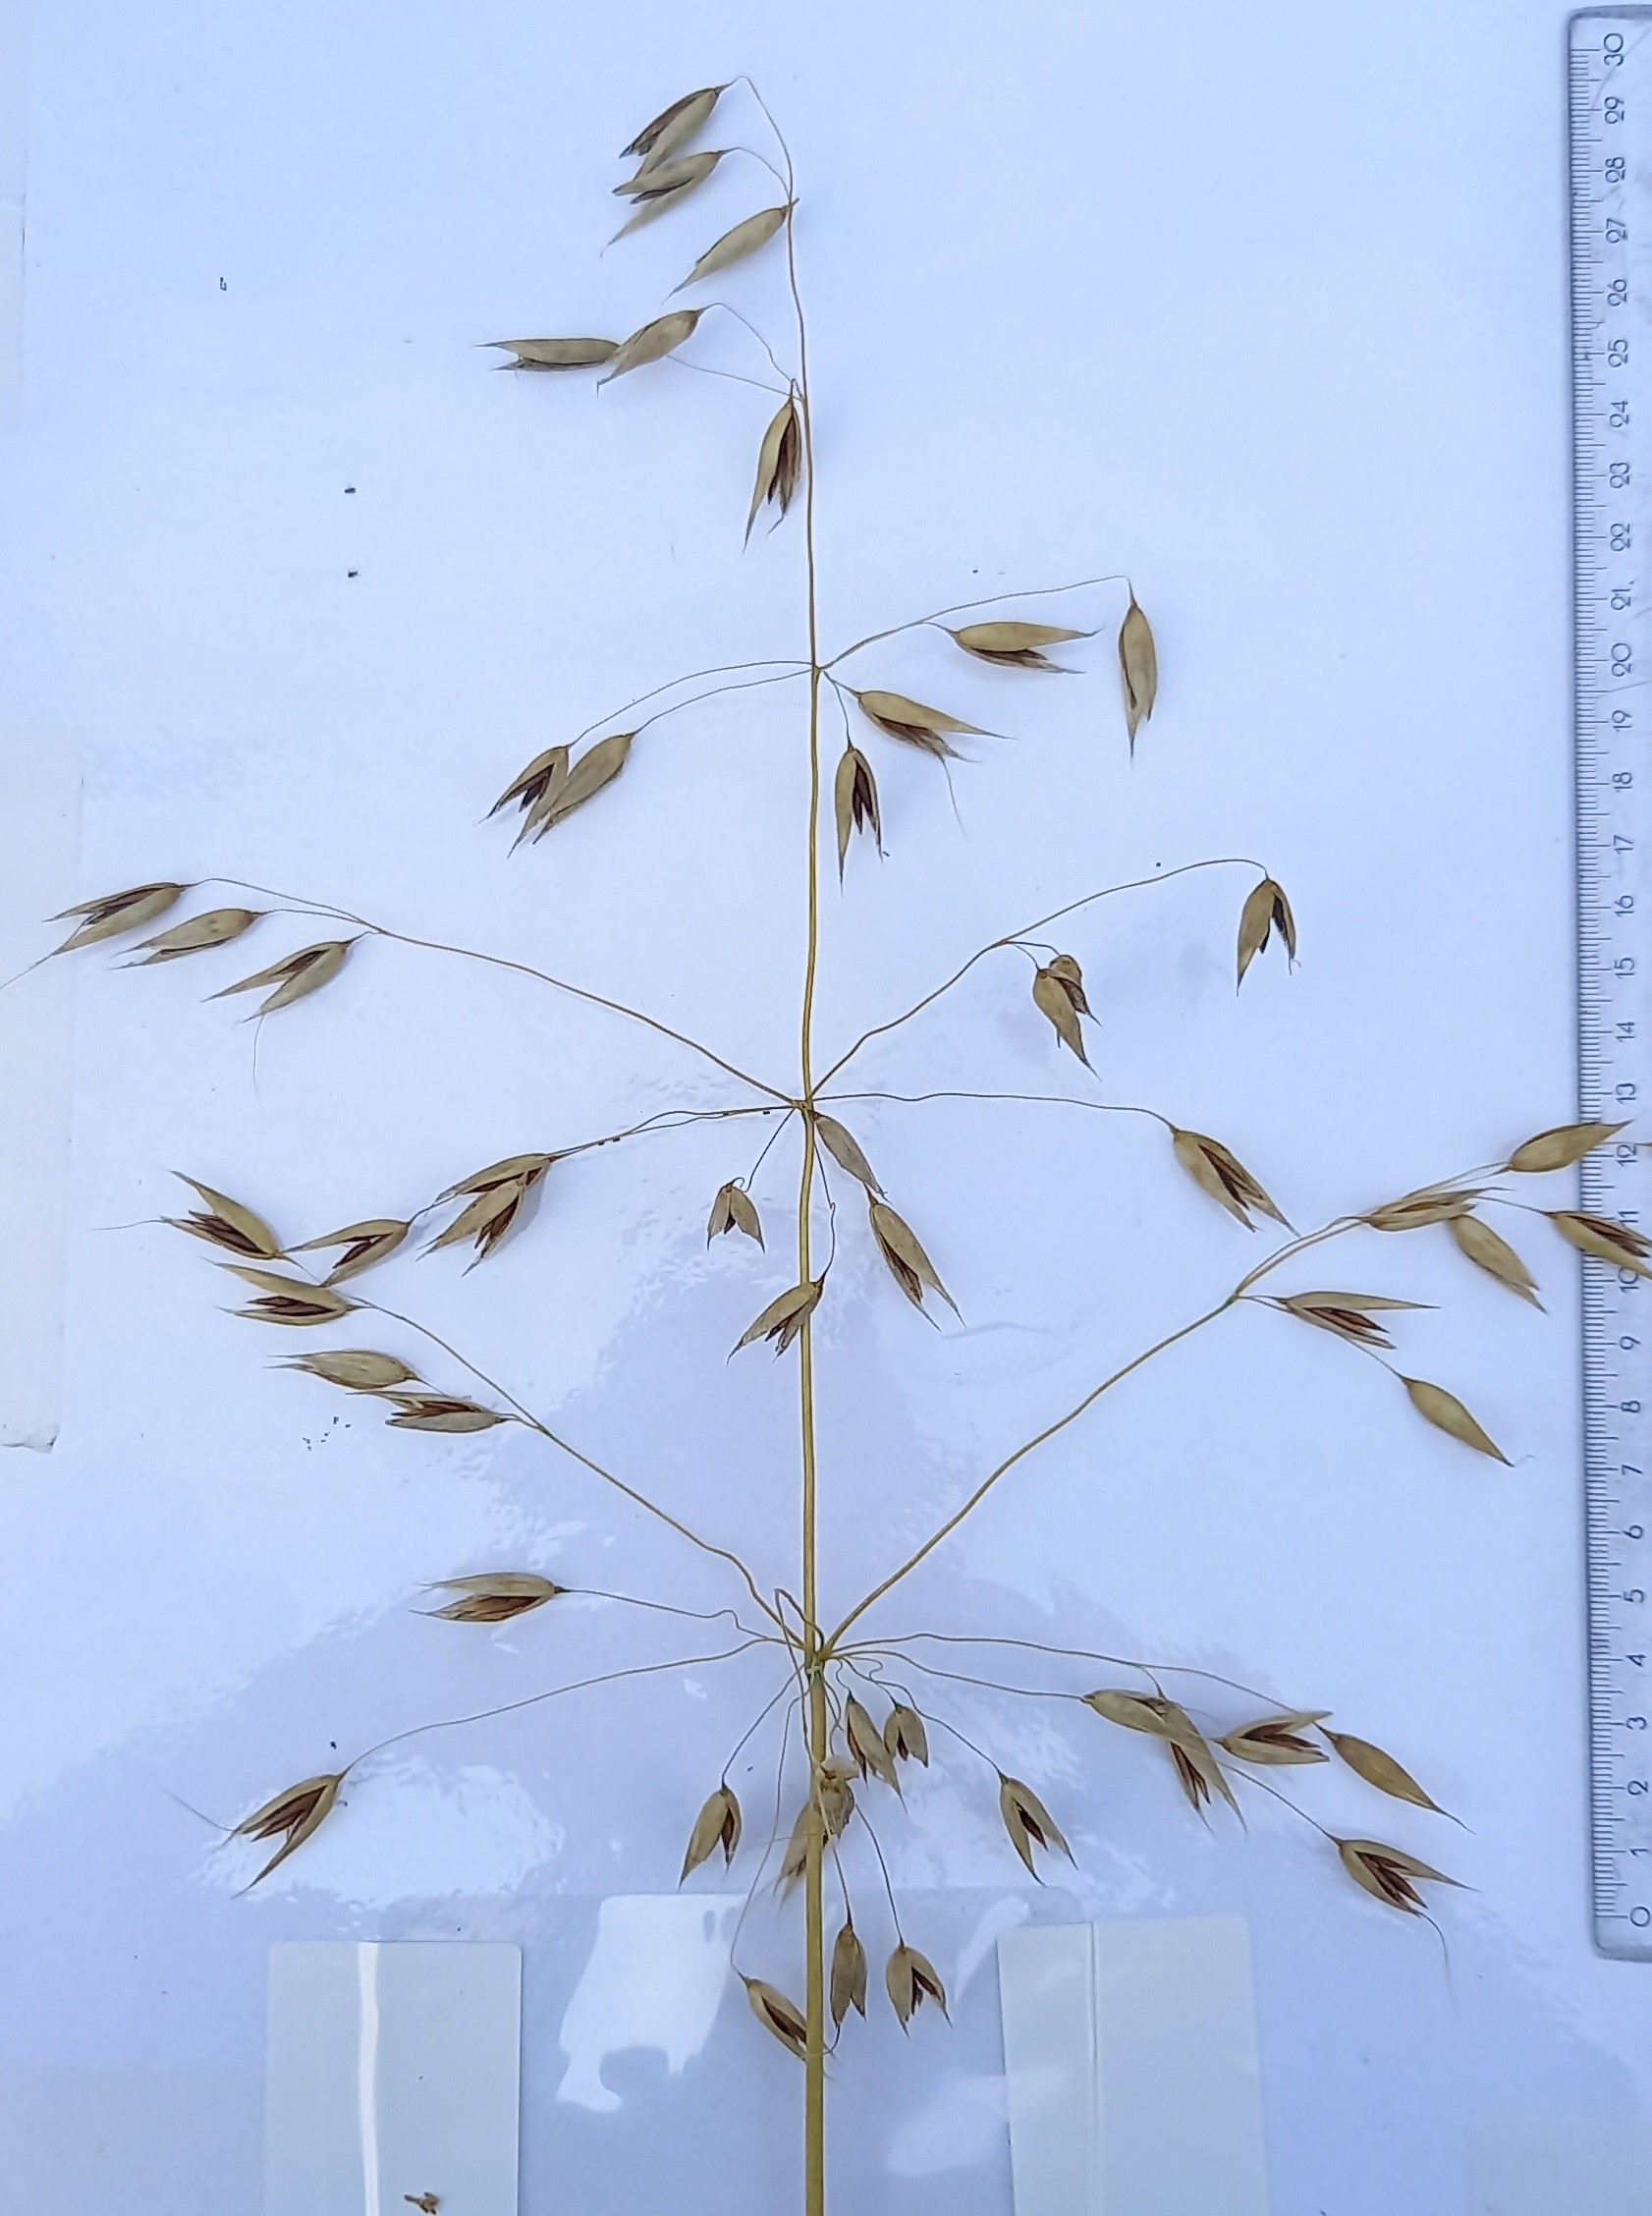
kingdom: Plantae
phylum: Tracheophyta
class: Liliopsida
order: Poales
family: Poaceae
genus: Avena
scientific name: Avena sativa
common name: Oat
